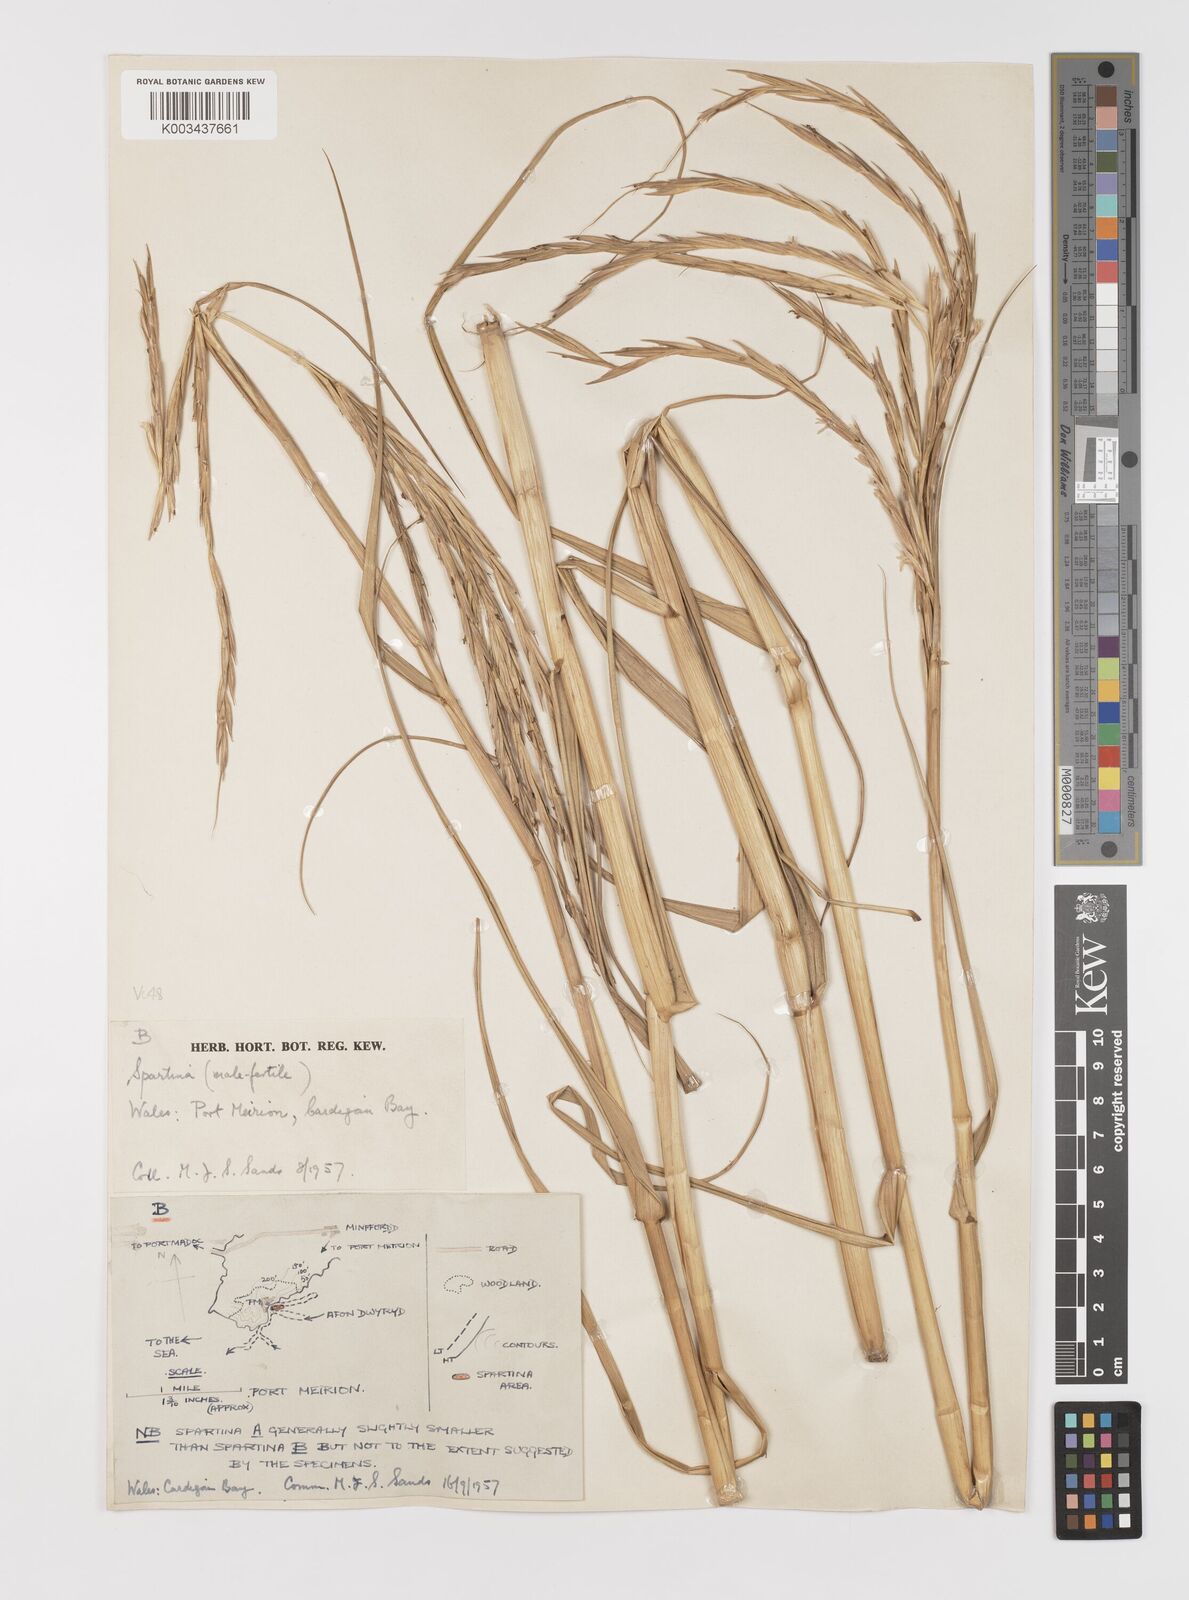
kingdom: Plantae
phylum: Tracheophyta
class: Liliopsida
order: Poales
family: Poaceae
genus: Sporobolus
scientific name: Sporobolus anglicus
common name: English cordgrass
